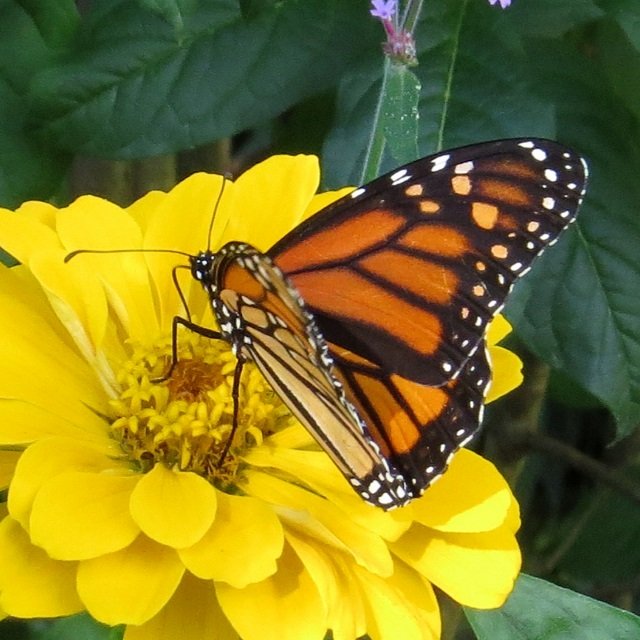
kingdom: Animalia
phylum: Arthropoda
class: Insecta
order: Lepidoptera
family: Nymphalidae
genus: Danaus
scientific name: Danaus plexippus
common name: Monarch
